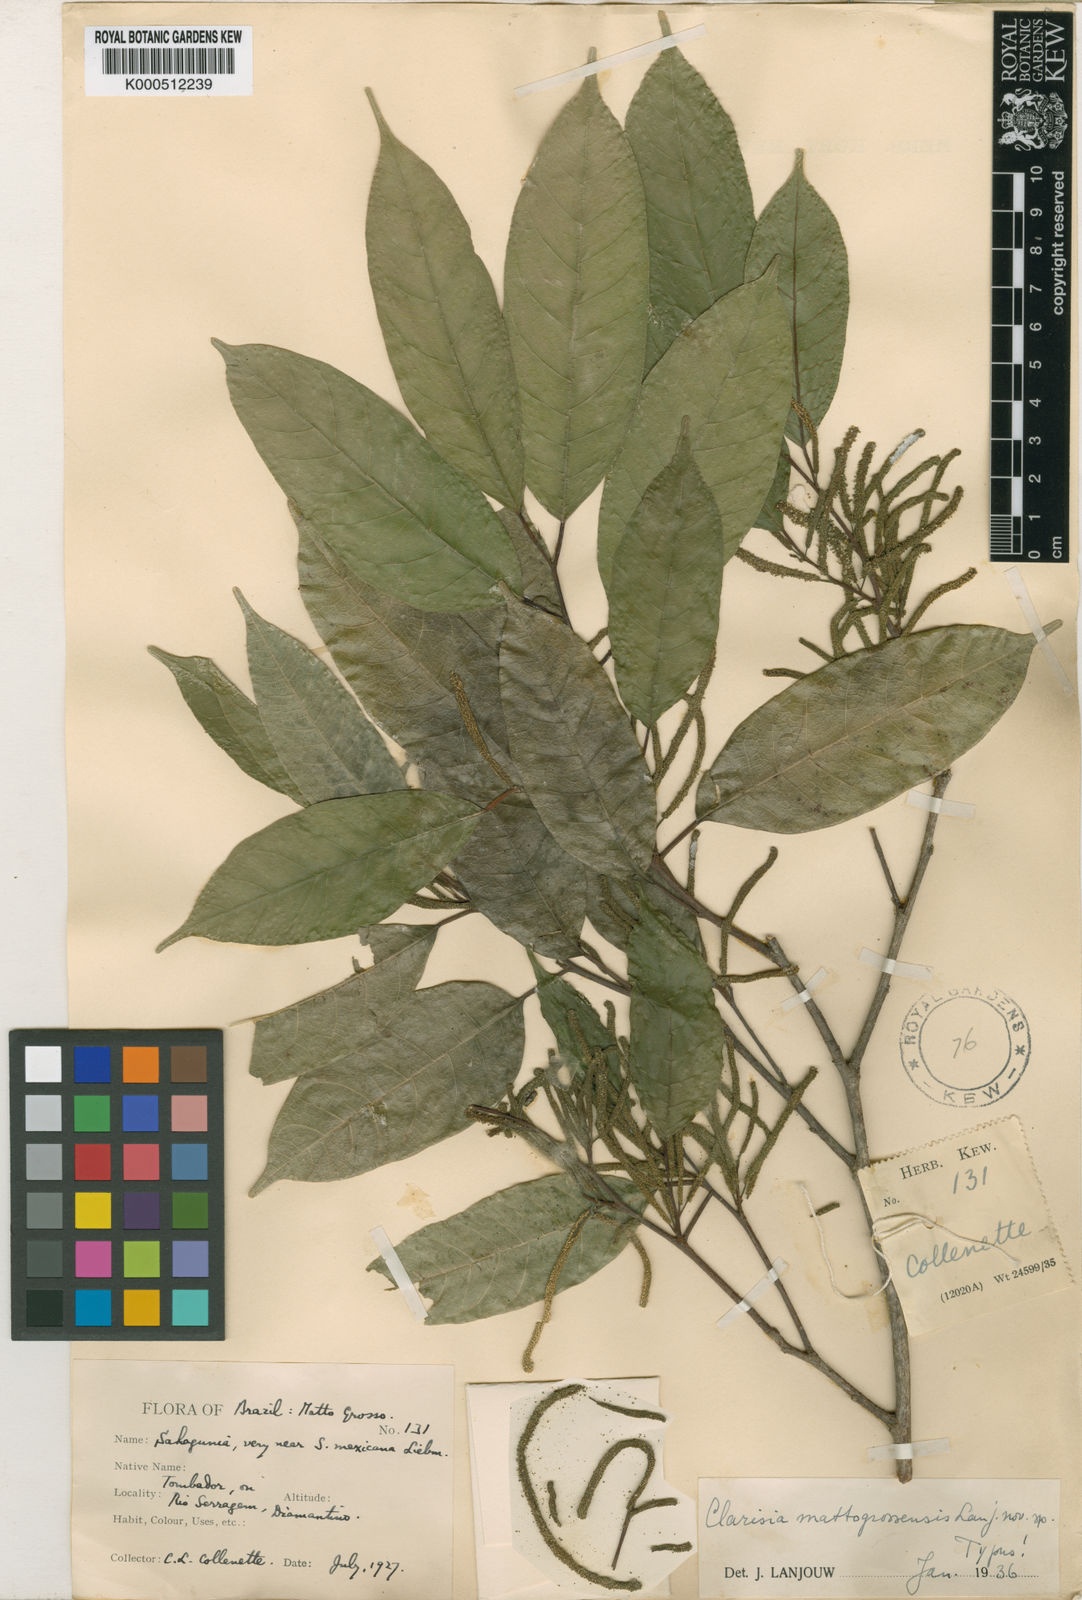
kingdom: Plantae
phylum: Tracheophyta
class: Magnoliopsida
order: Rosales
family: Moraceae
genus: Clarisia
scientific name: Clarisia biflora
